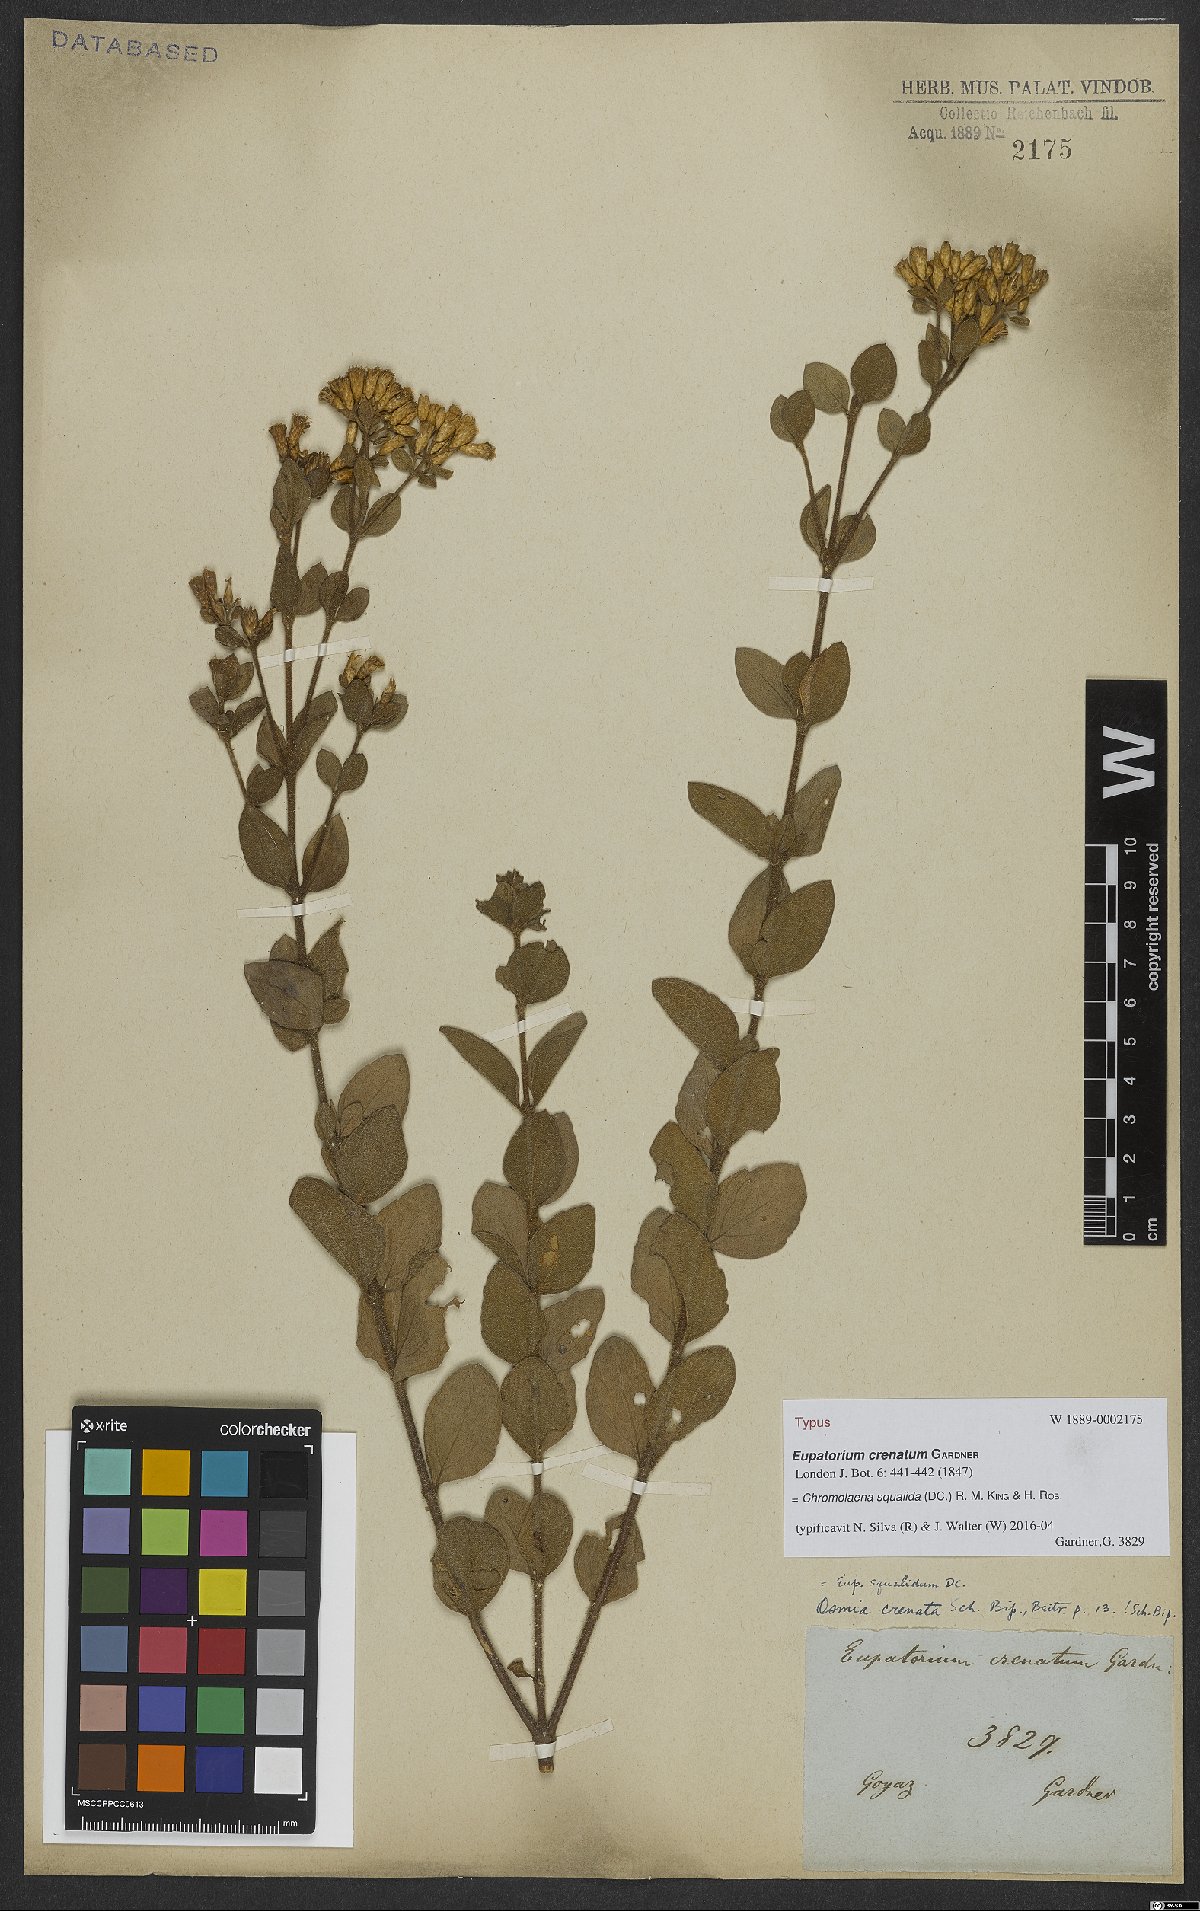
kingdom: Plantae
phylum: Tracheophyta
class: Magnoliopsida
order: Asterales
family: Asteraceae
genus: Chromolaena
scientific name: Chromolaena squalida
